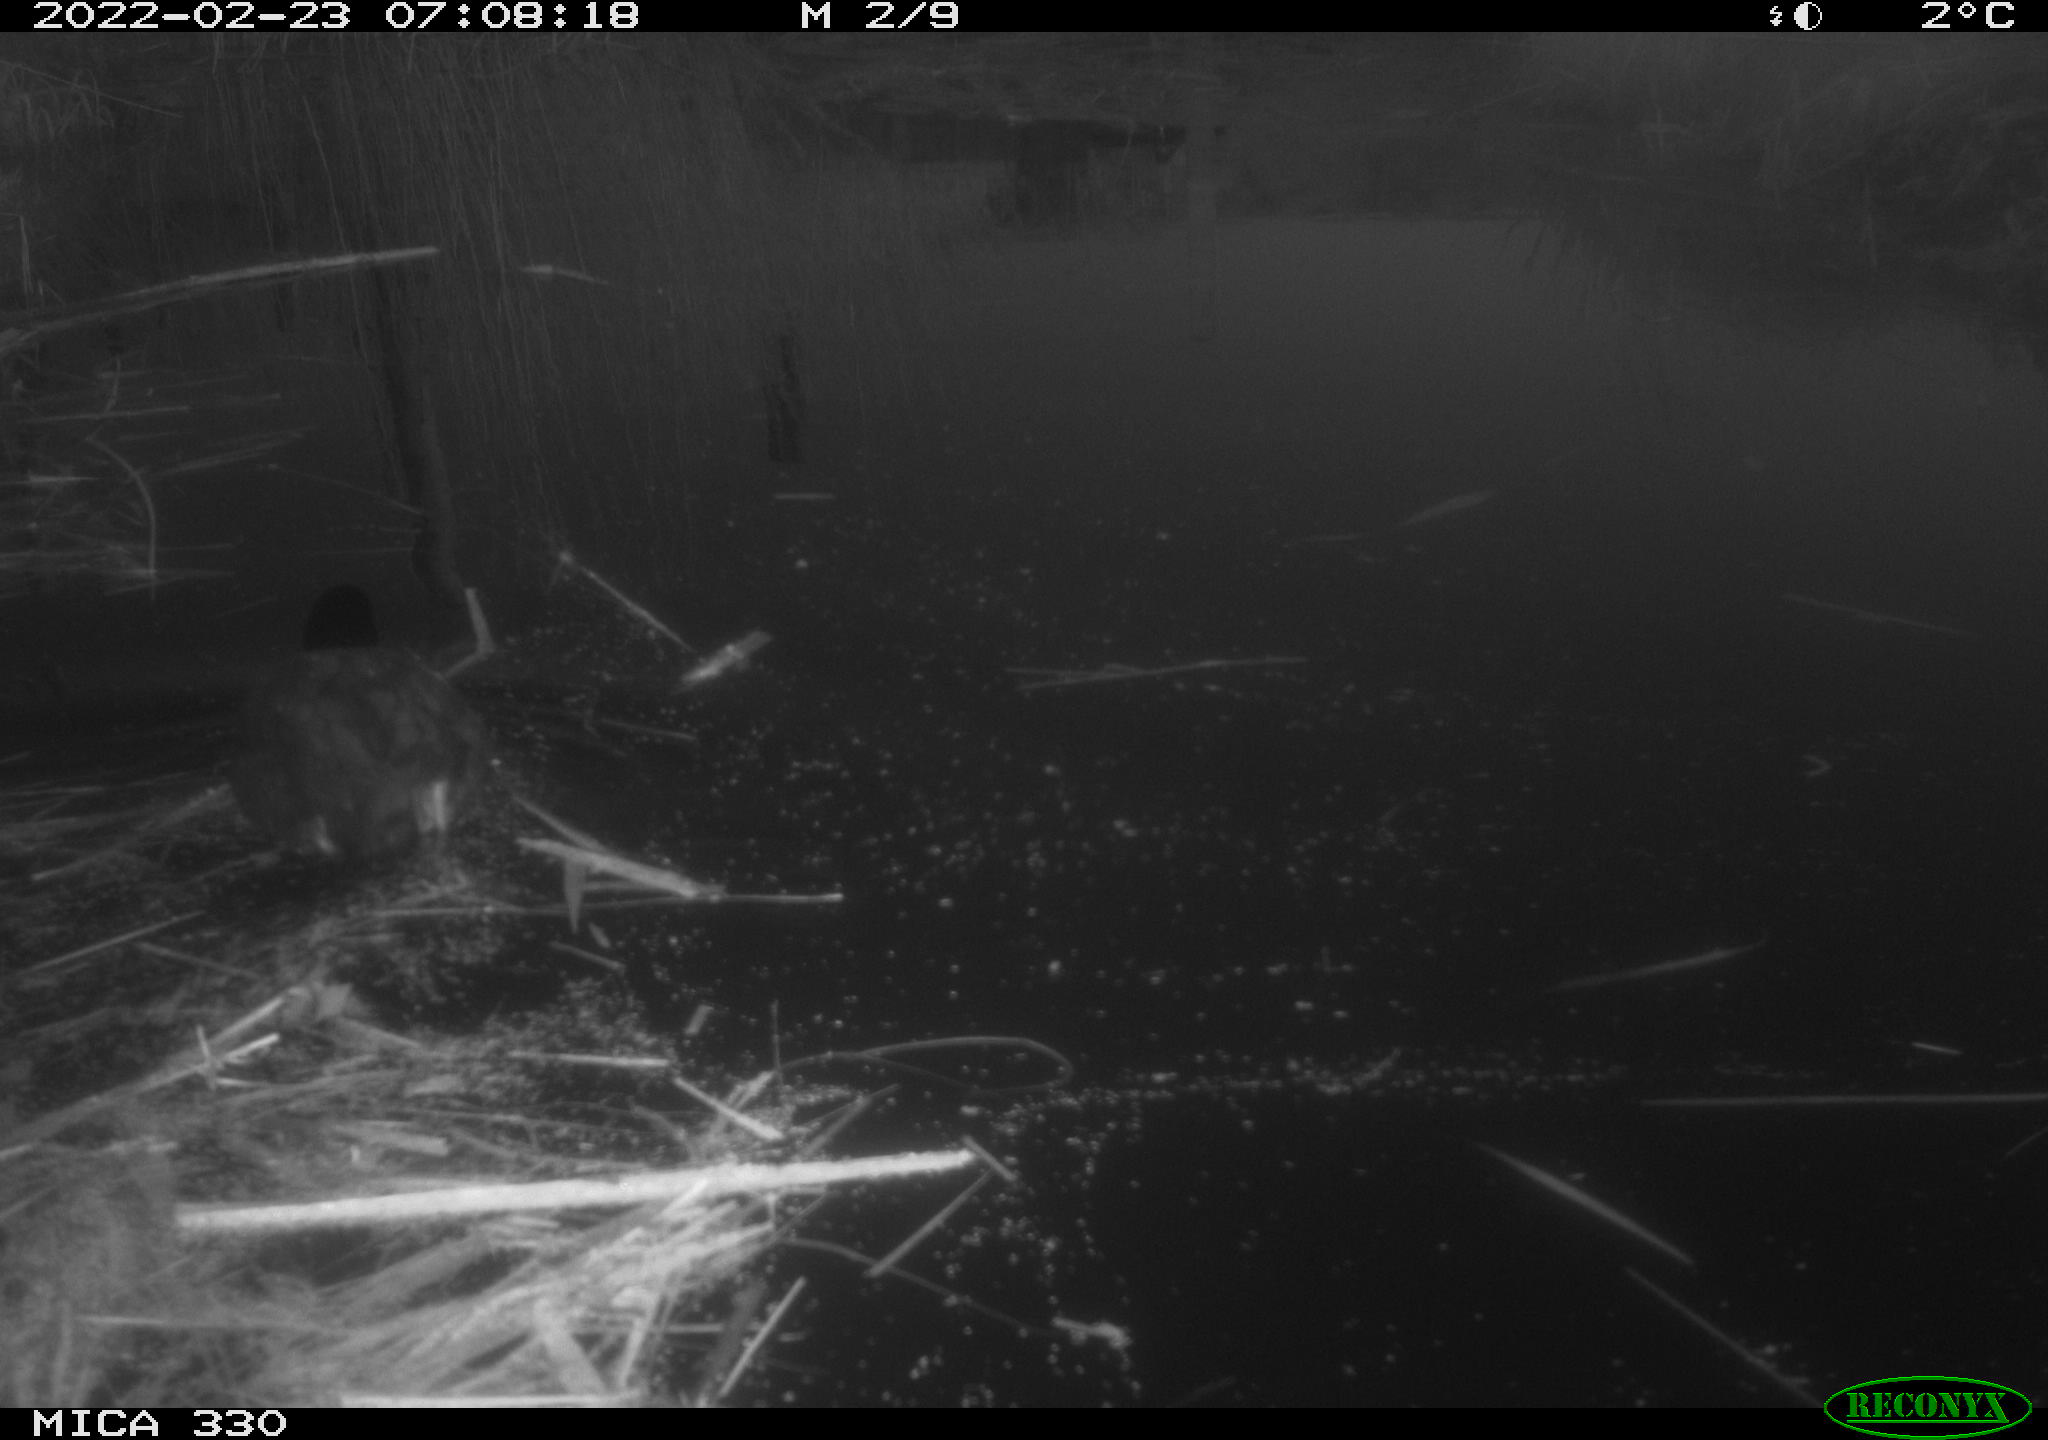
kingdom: Animalia
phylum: Chordata
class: Aves
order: Gruiformes
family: Rallidae
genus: Fulica
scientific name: Fulica atra
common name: Eurasian coot
